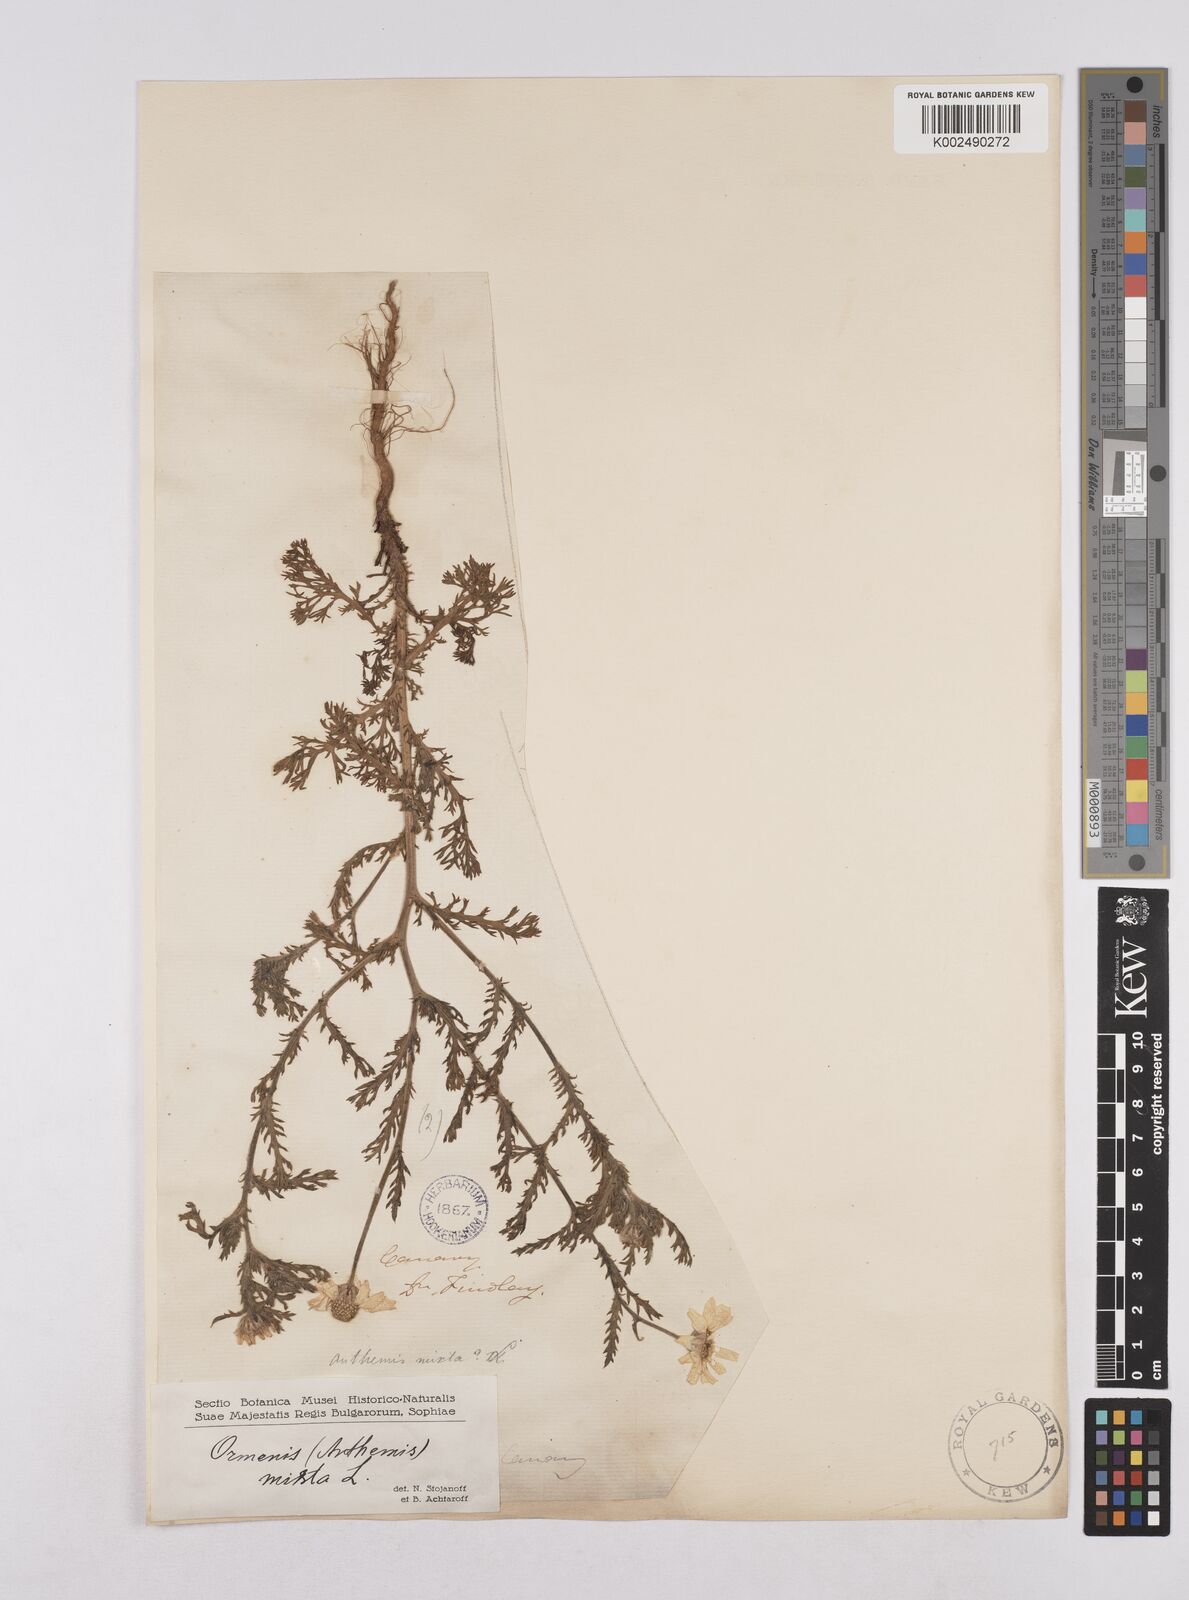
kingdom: Plantae
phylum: Tracheophyta
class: Magnoliopsida
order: Asterales
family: Asteraceae
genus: Cladanthus
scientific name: Cladanthus mixtus
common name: Weedy dogfennel
